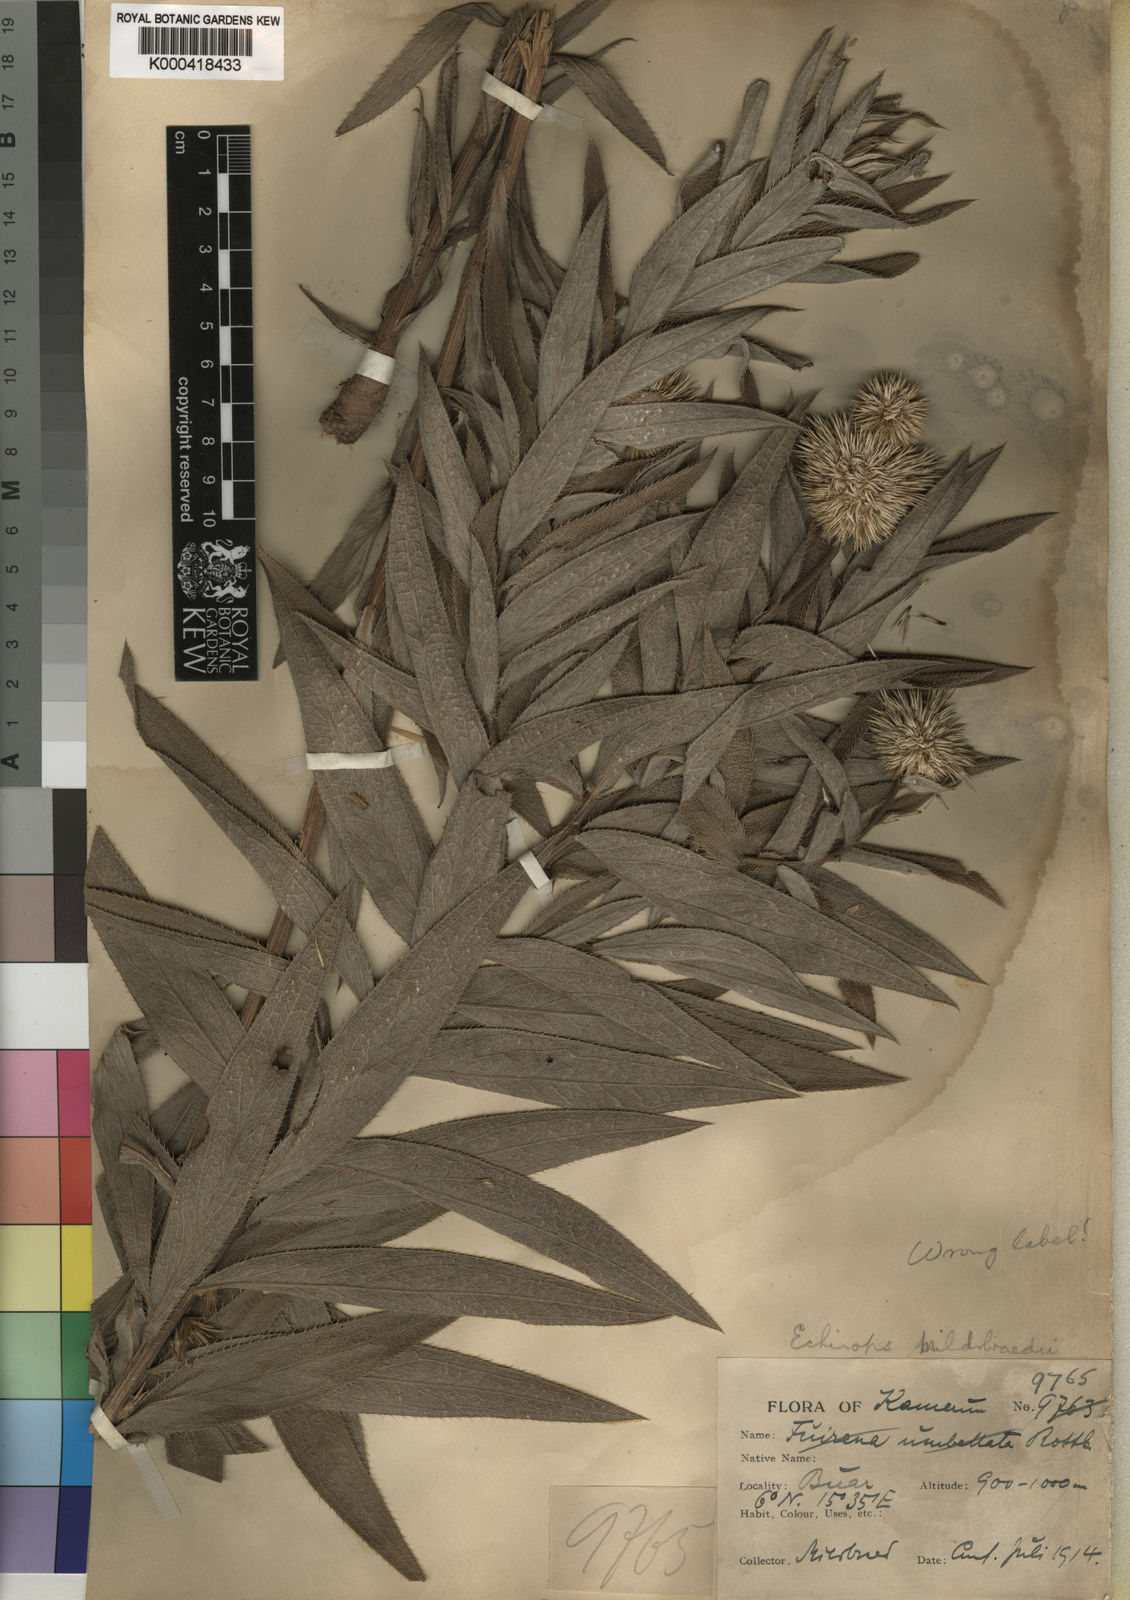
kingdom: Plantae
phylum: Tracheophyta
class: Magnoliopsida
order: Asterales
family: Asteraceae
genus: Echinops
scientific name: Echinops mildbraedii
